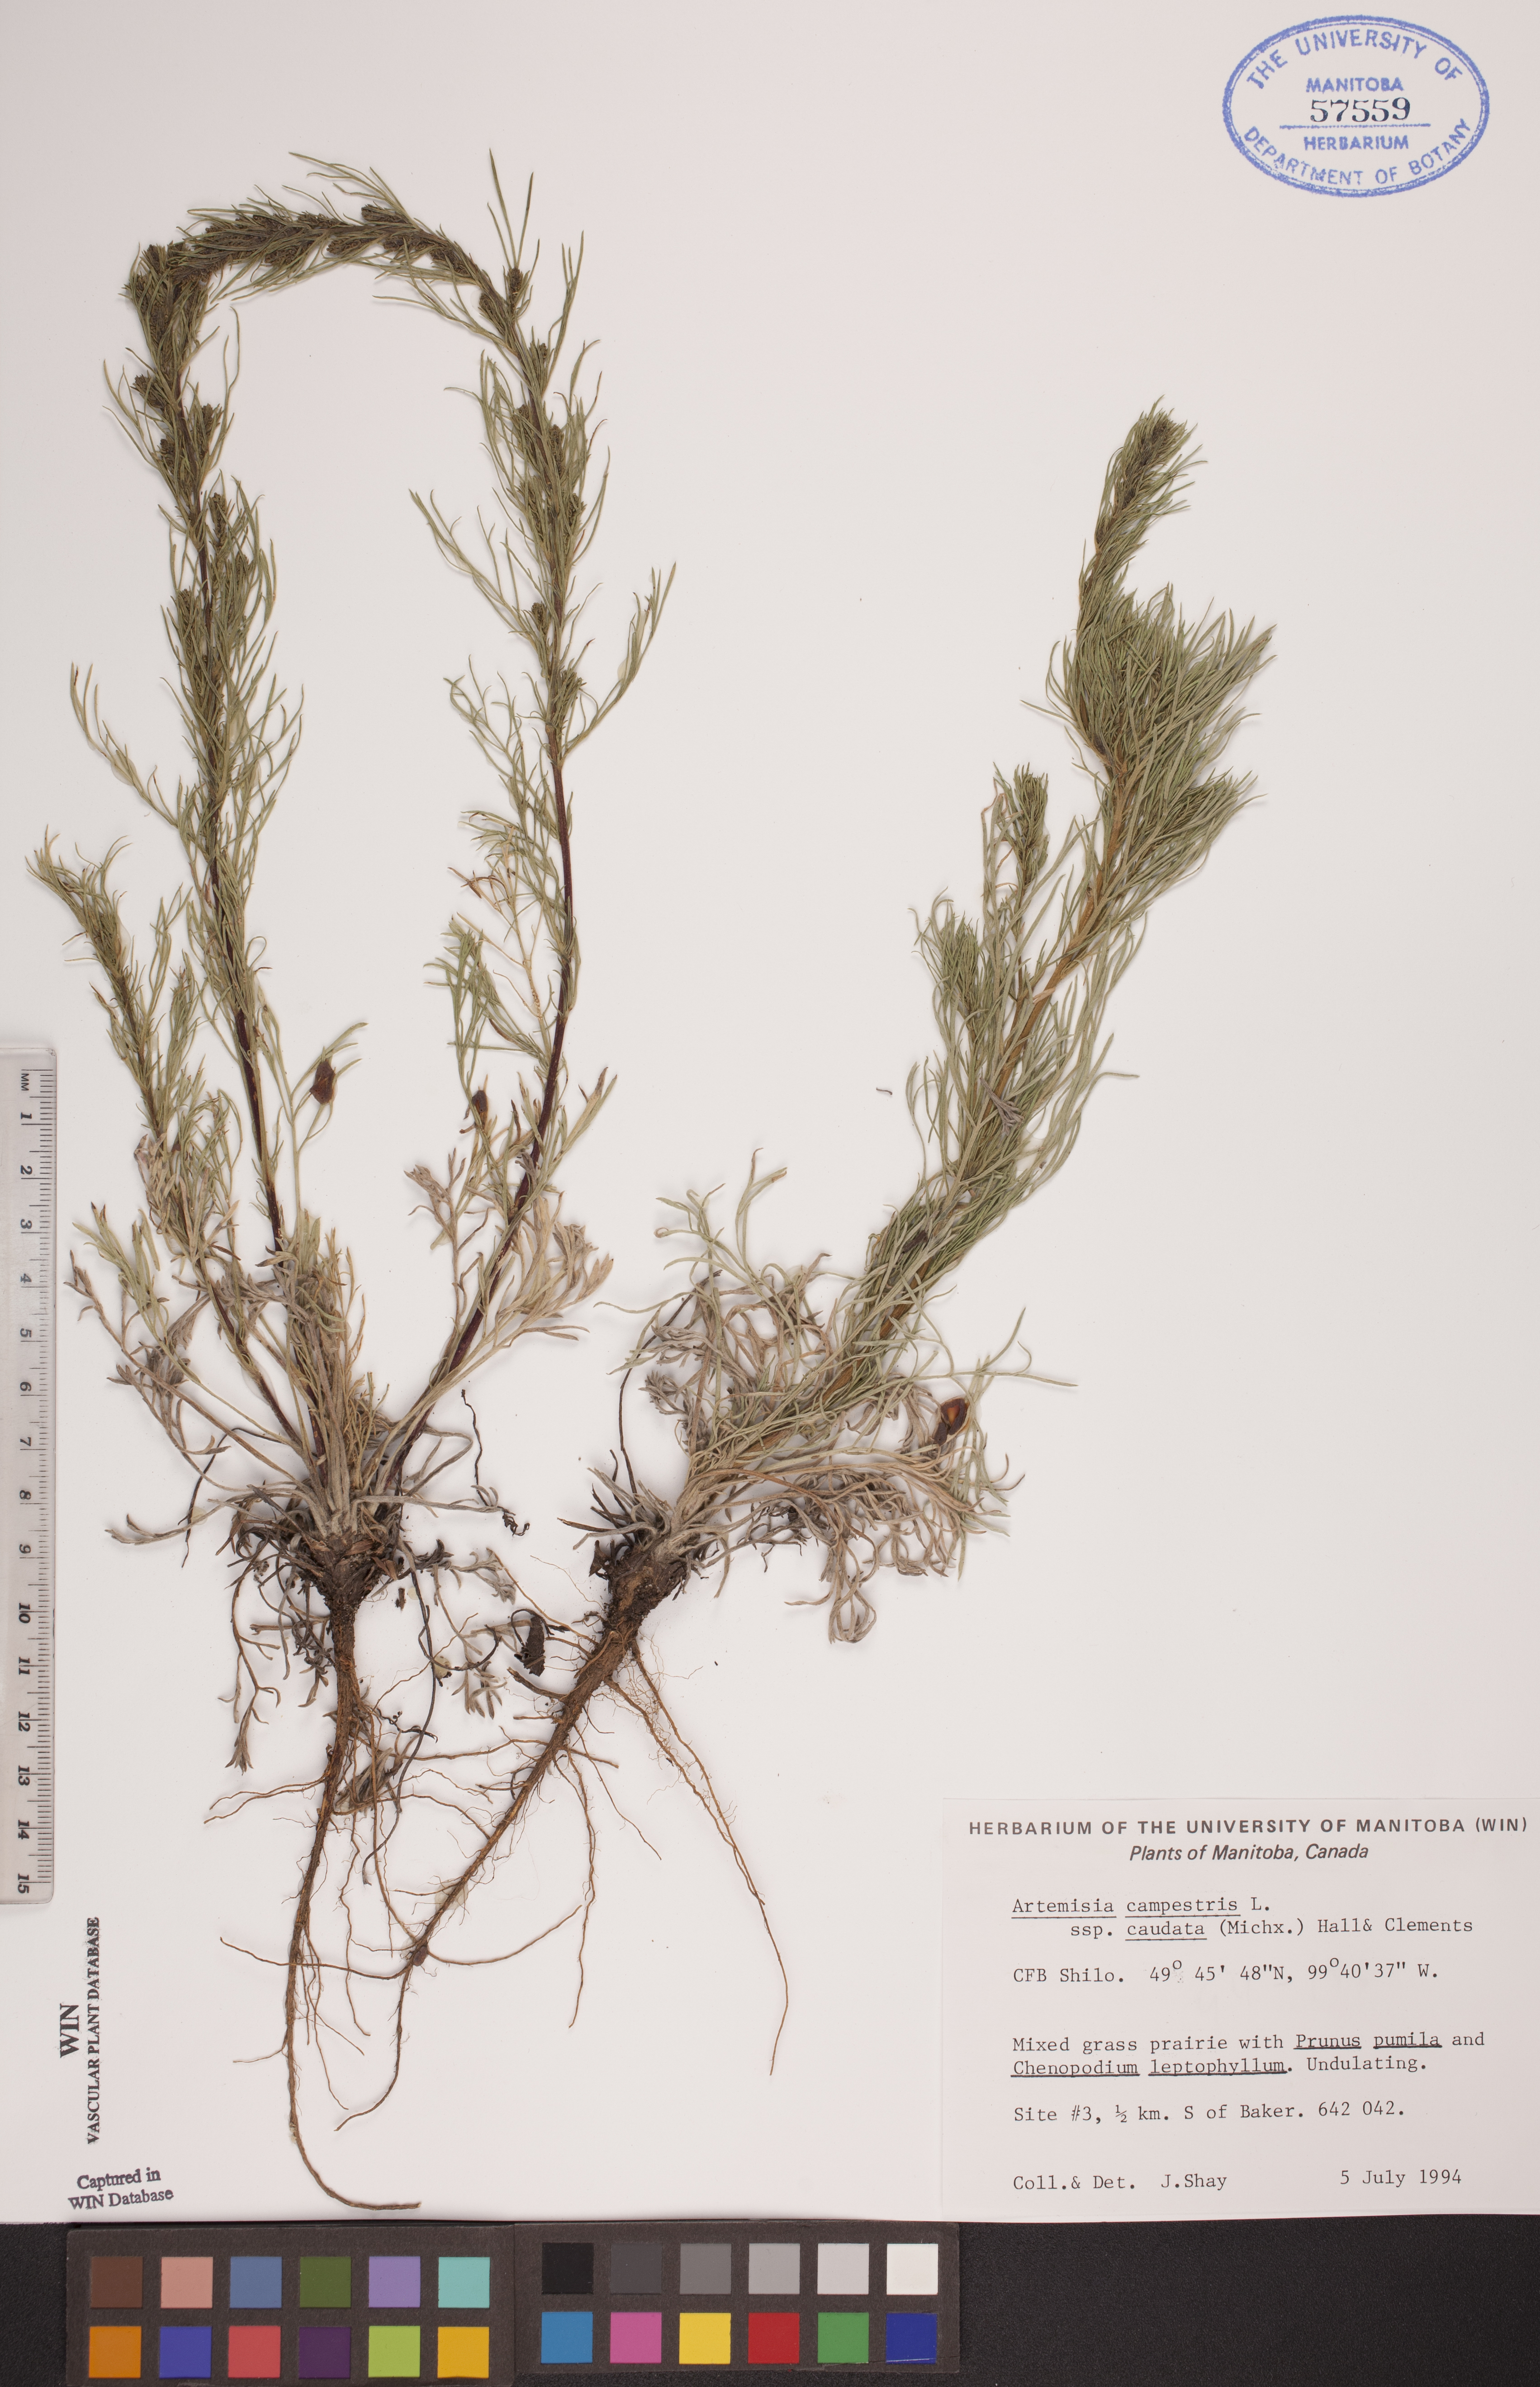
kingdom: Plantae
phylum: Tracheophyta
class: Magnoliopsida
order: Asterales
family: Asteraceae
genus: Artemisia
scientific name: Artemisia campestris
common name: Field wormwood
